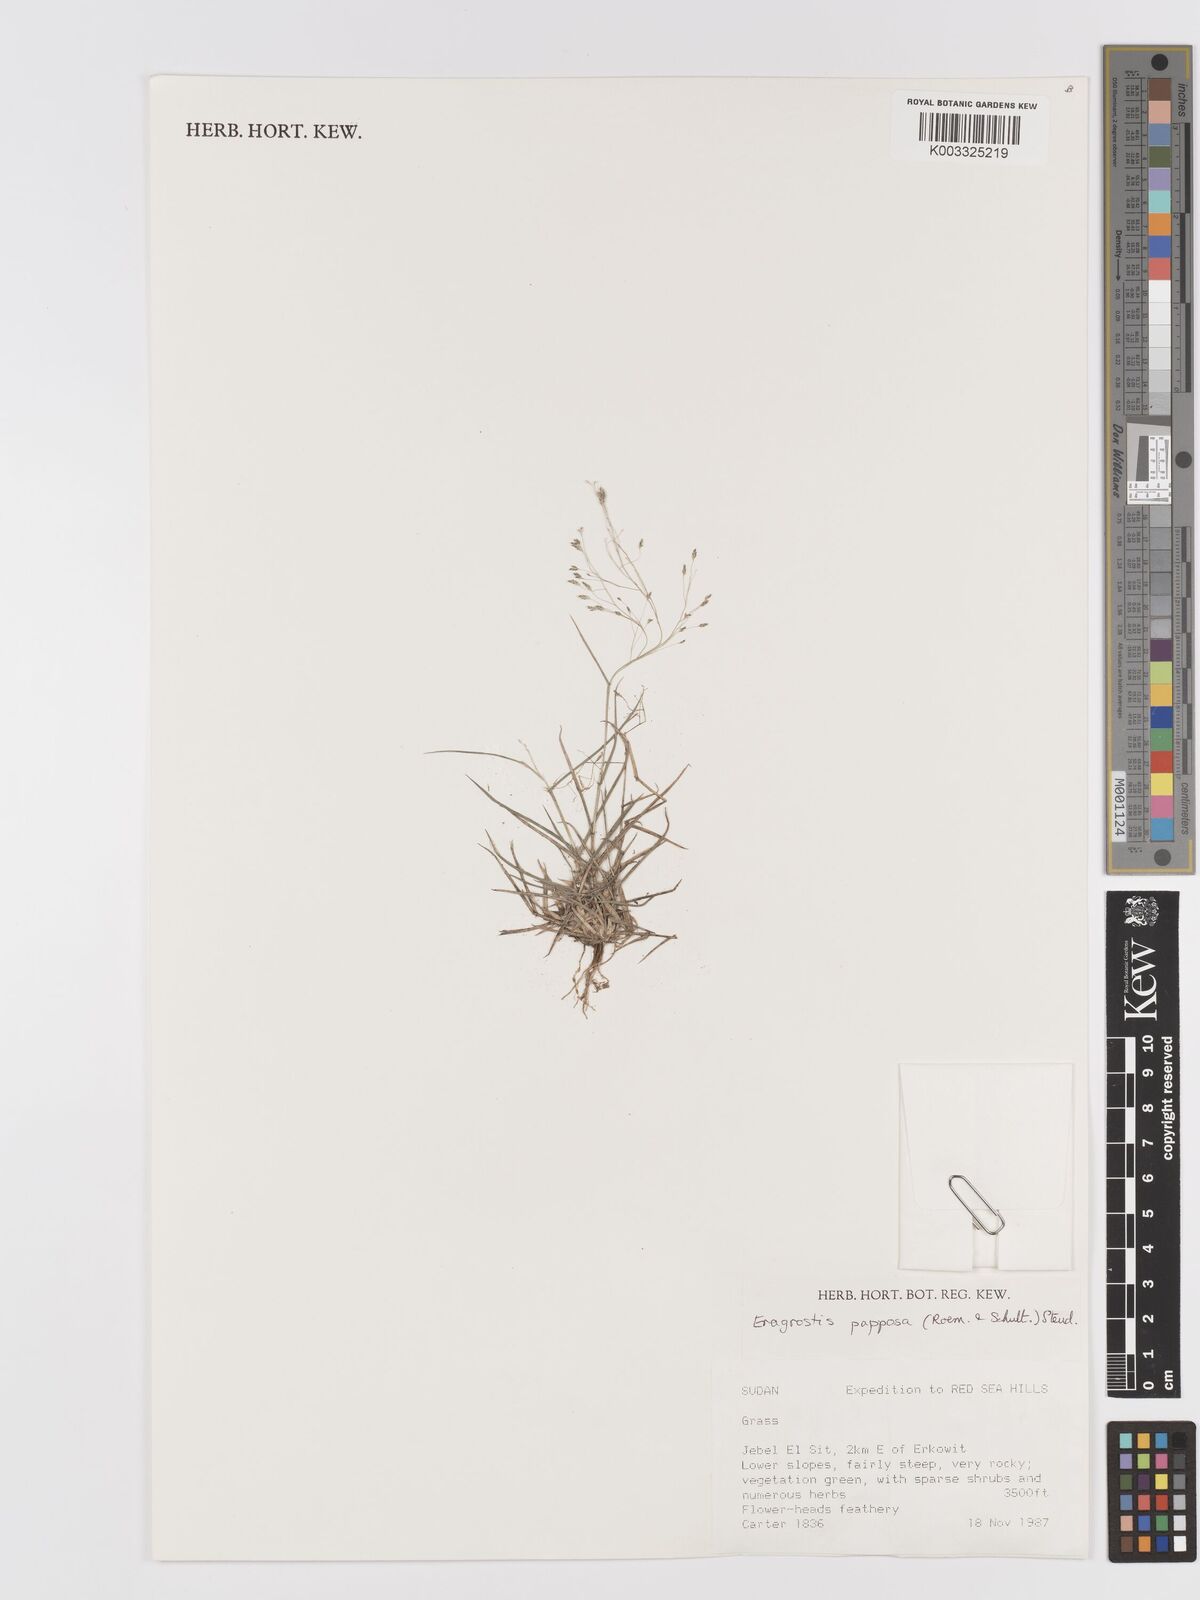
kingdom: Plantae
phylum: Tracheophyta
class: Liliopsida
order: Poales
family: Poaceae
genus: Eragrostis
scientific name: Eragrostis papposa
